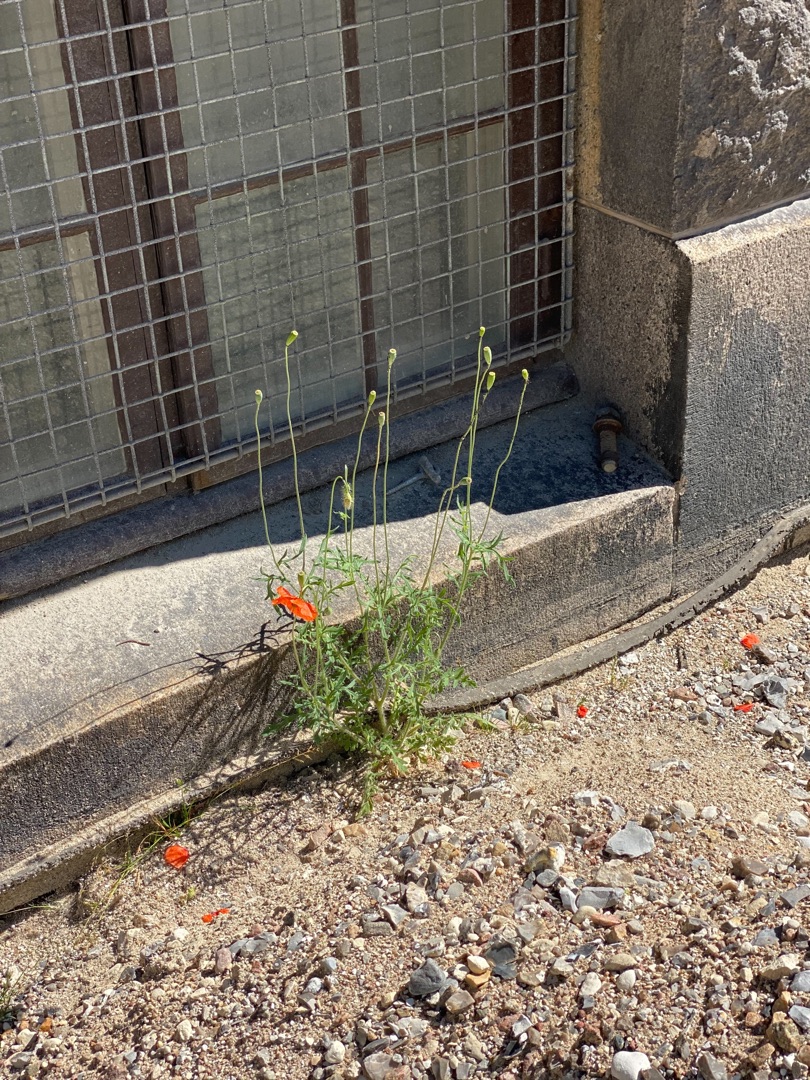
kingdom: Plantae
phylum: Tracheophyta
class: Magnoliopsida
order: Ranunculales
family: Papaveraceae
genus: Papaver
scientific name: Papaver dubium
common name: Gærde-valmue
